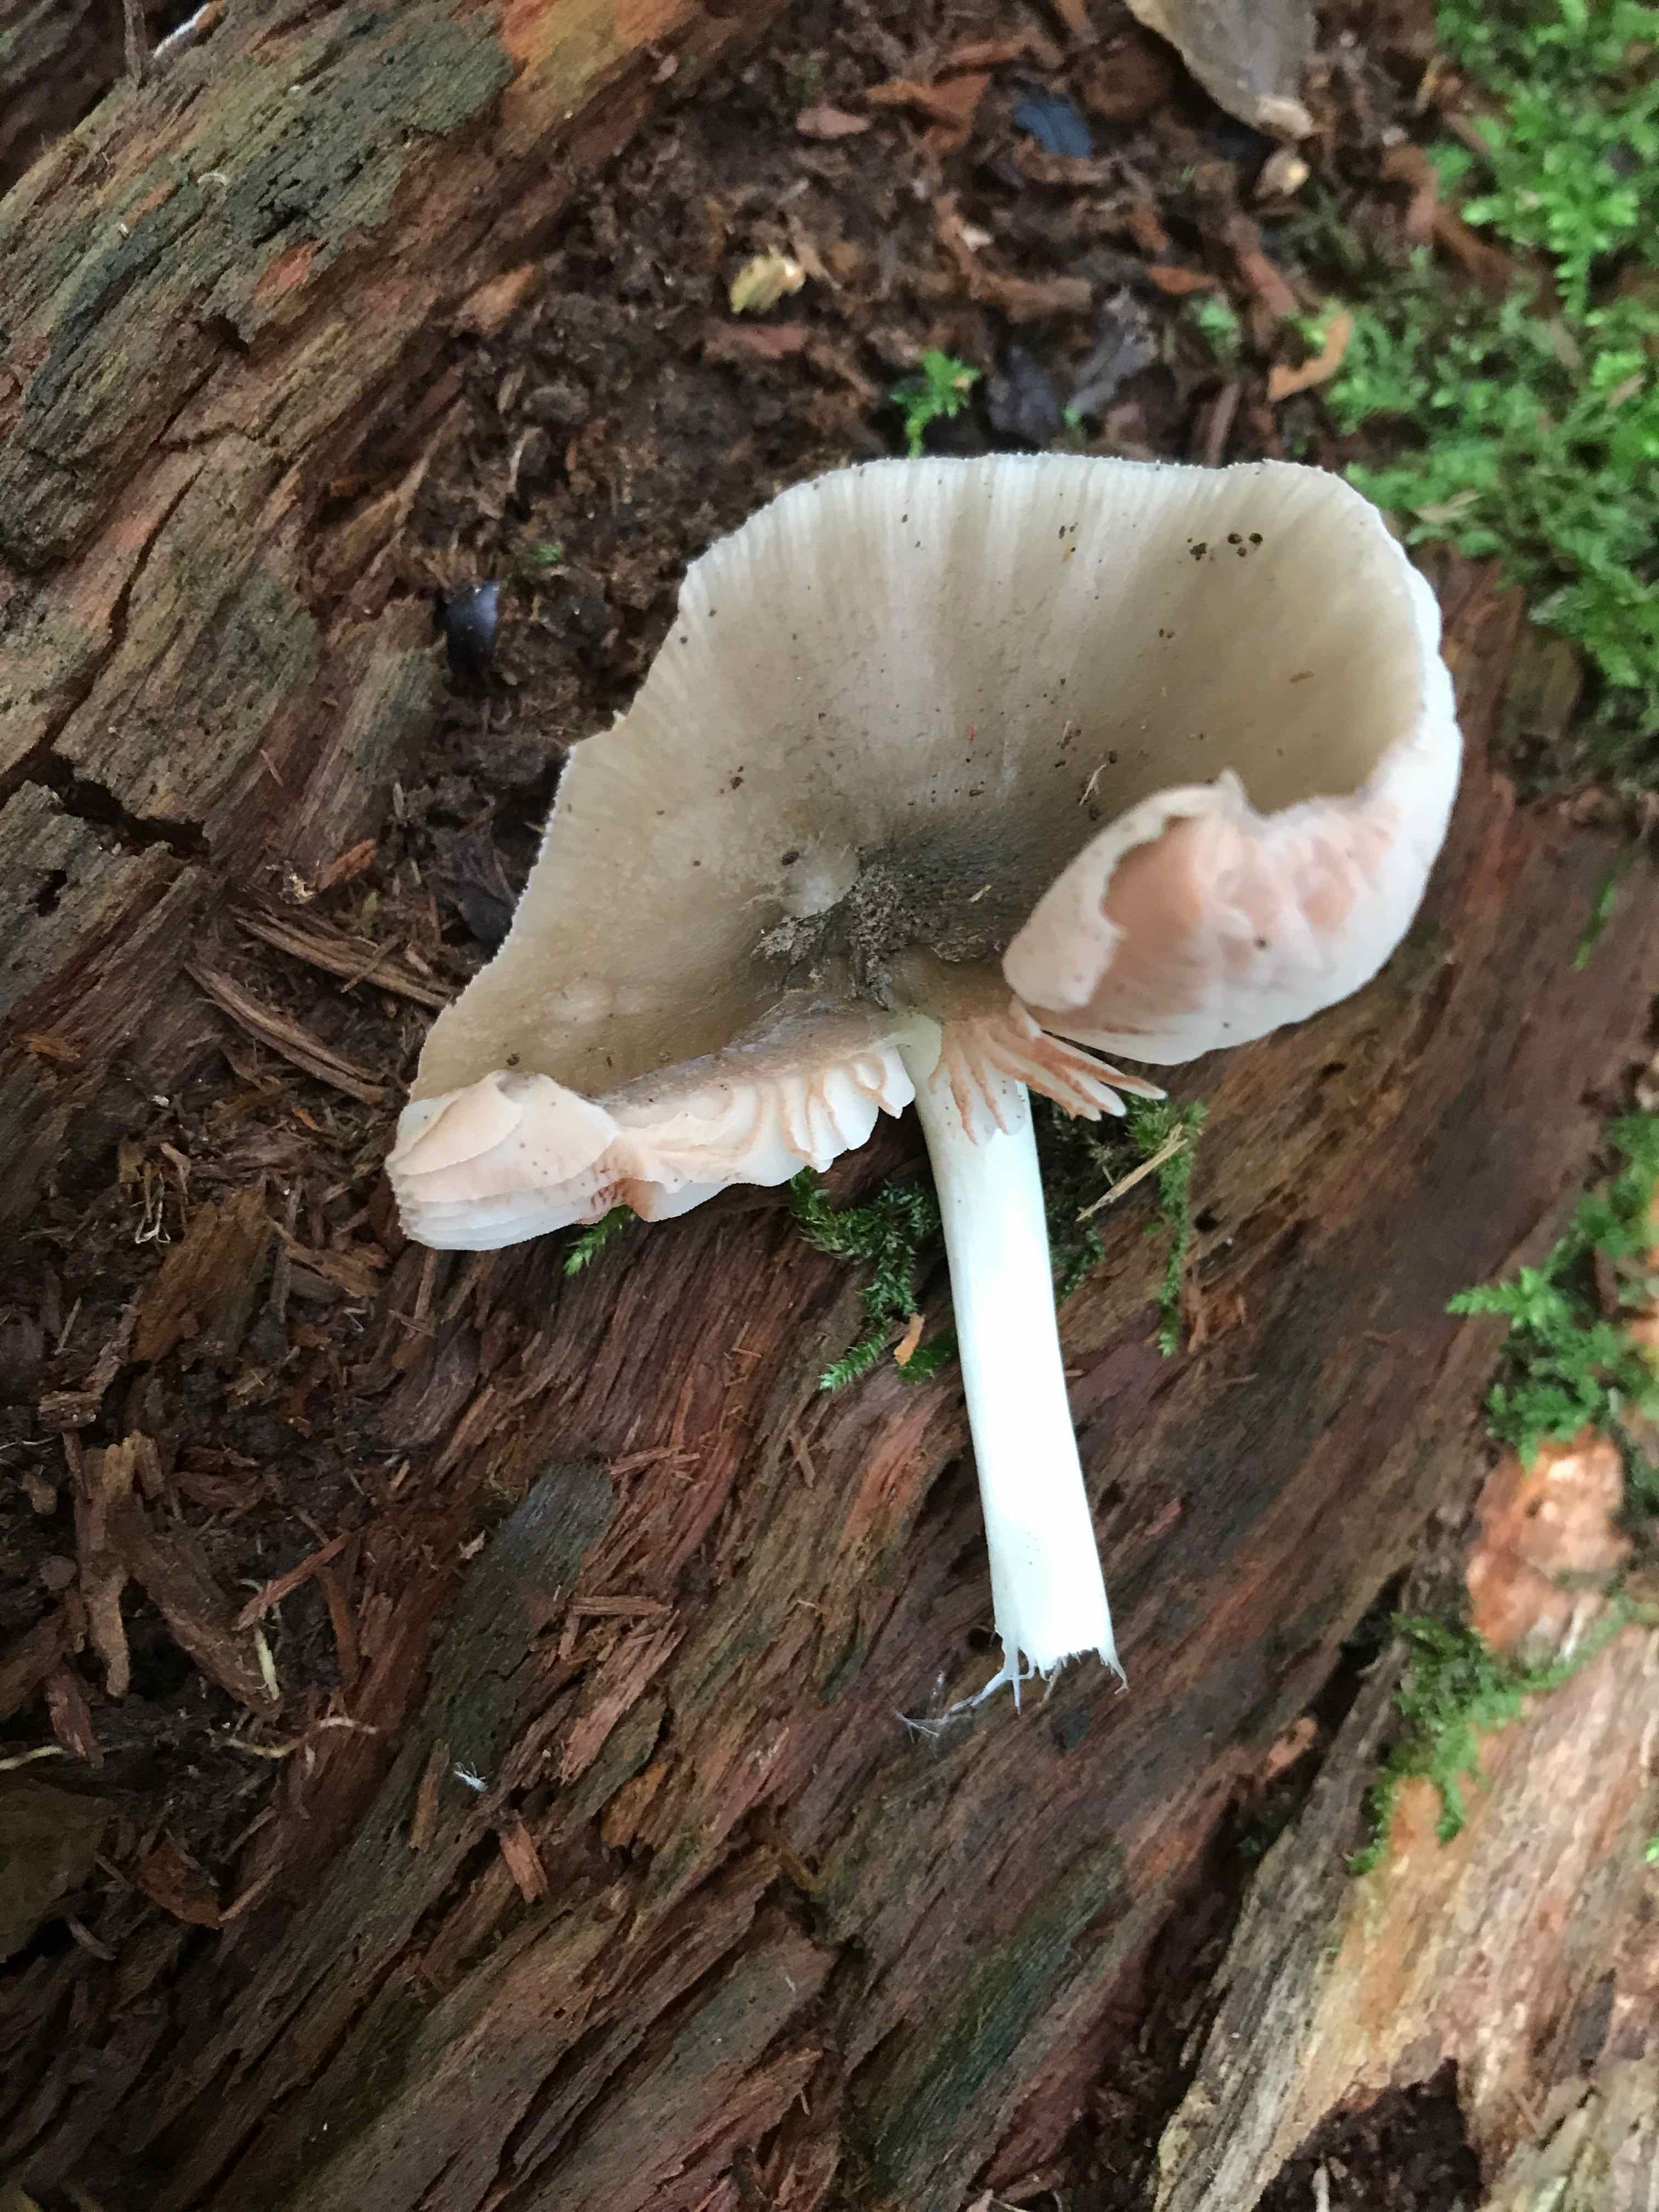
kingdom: Fungi
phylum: Basidiomycota
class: Agaricomycetes
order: Agaricales
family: Pluteaceae
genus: Pluteus
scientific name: Pluteus salicinus
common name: stiv skærmhat
